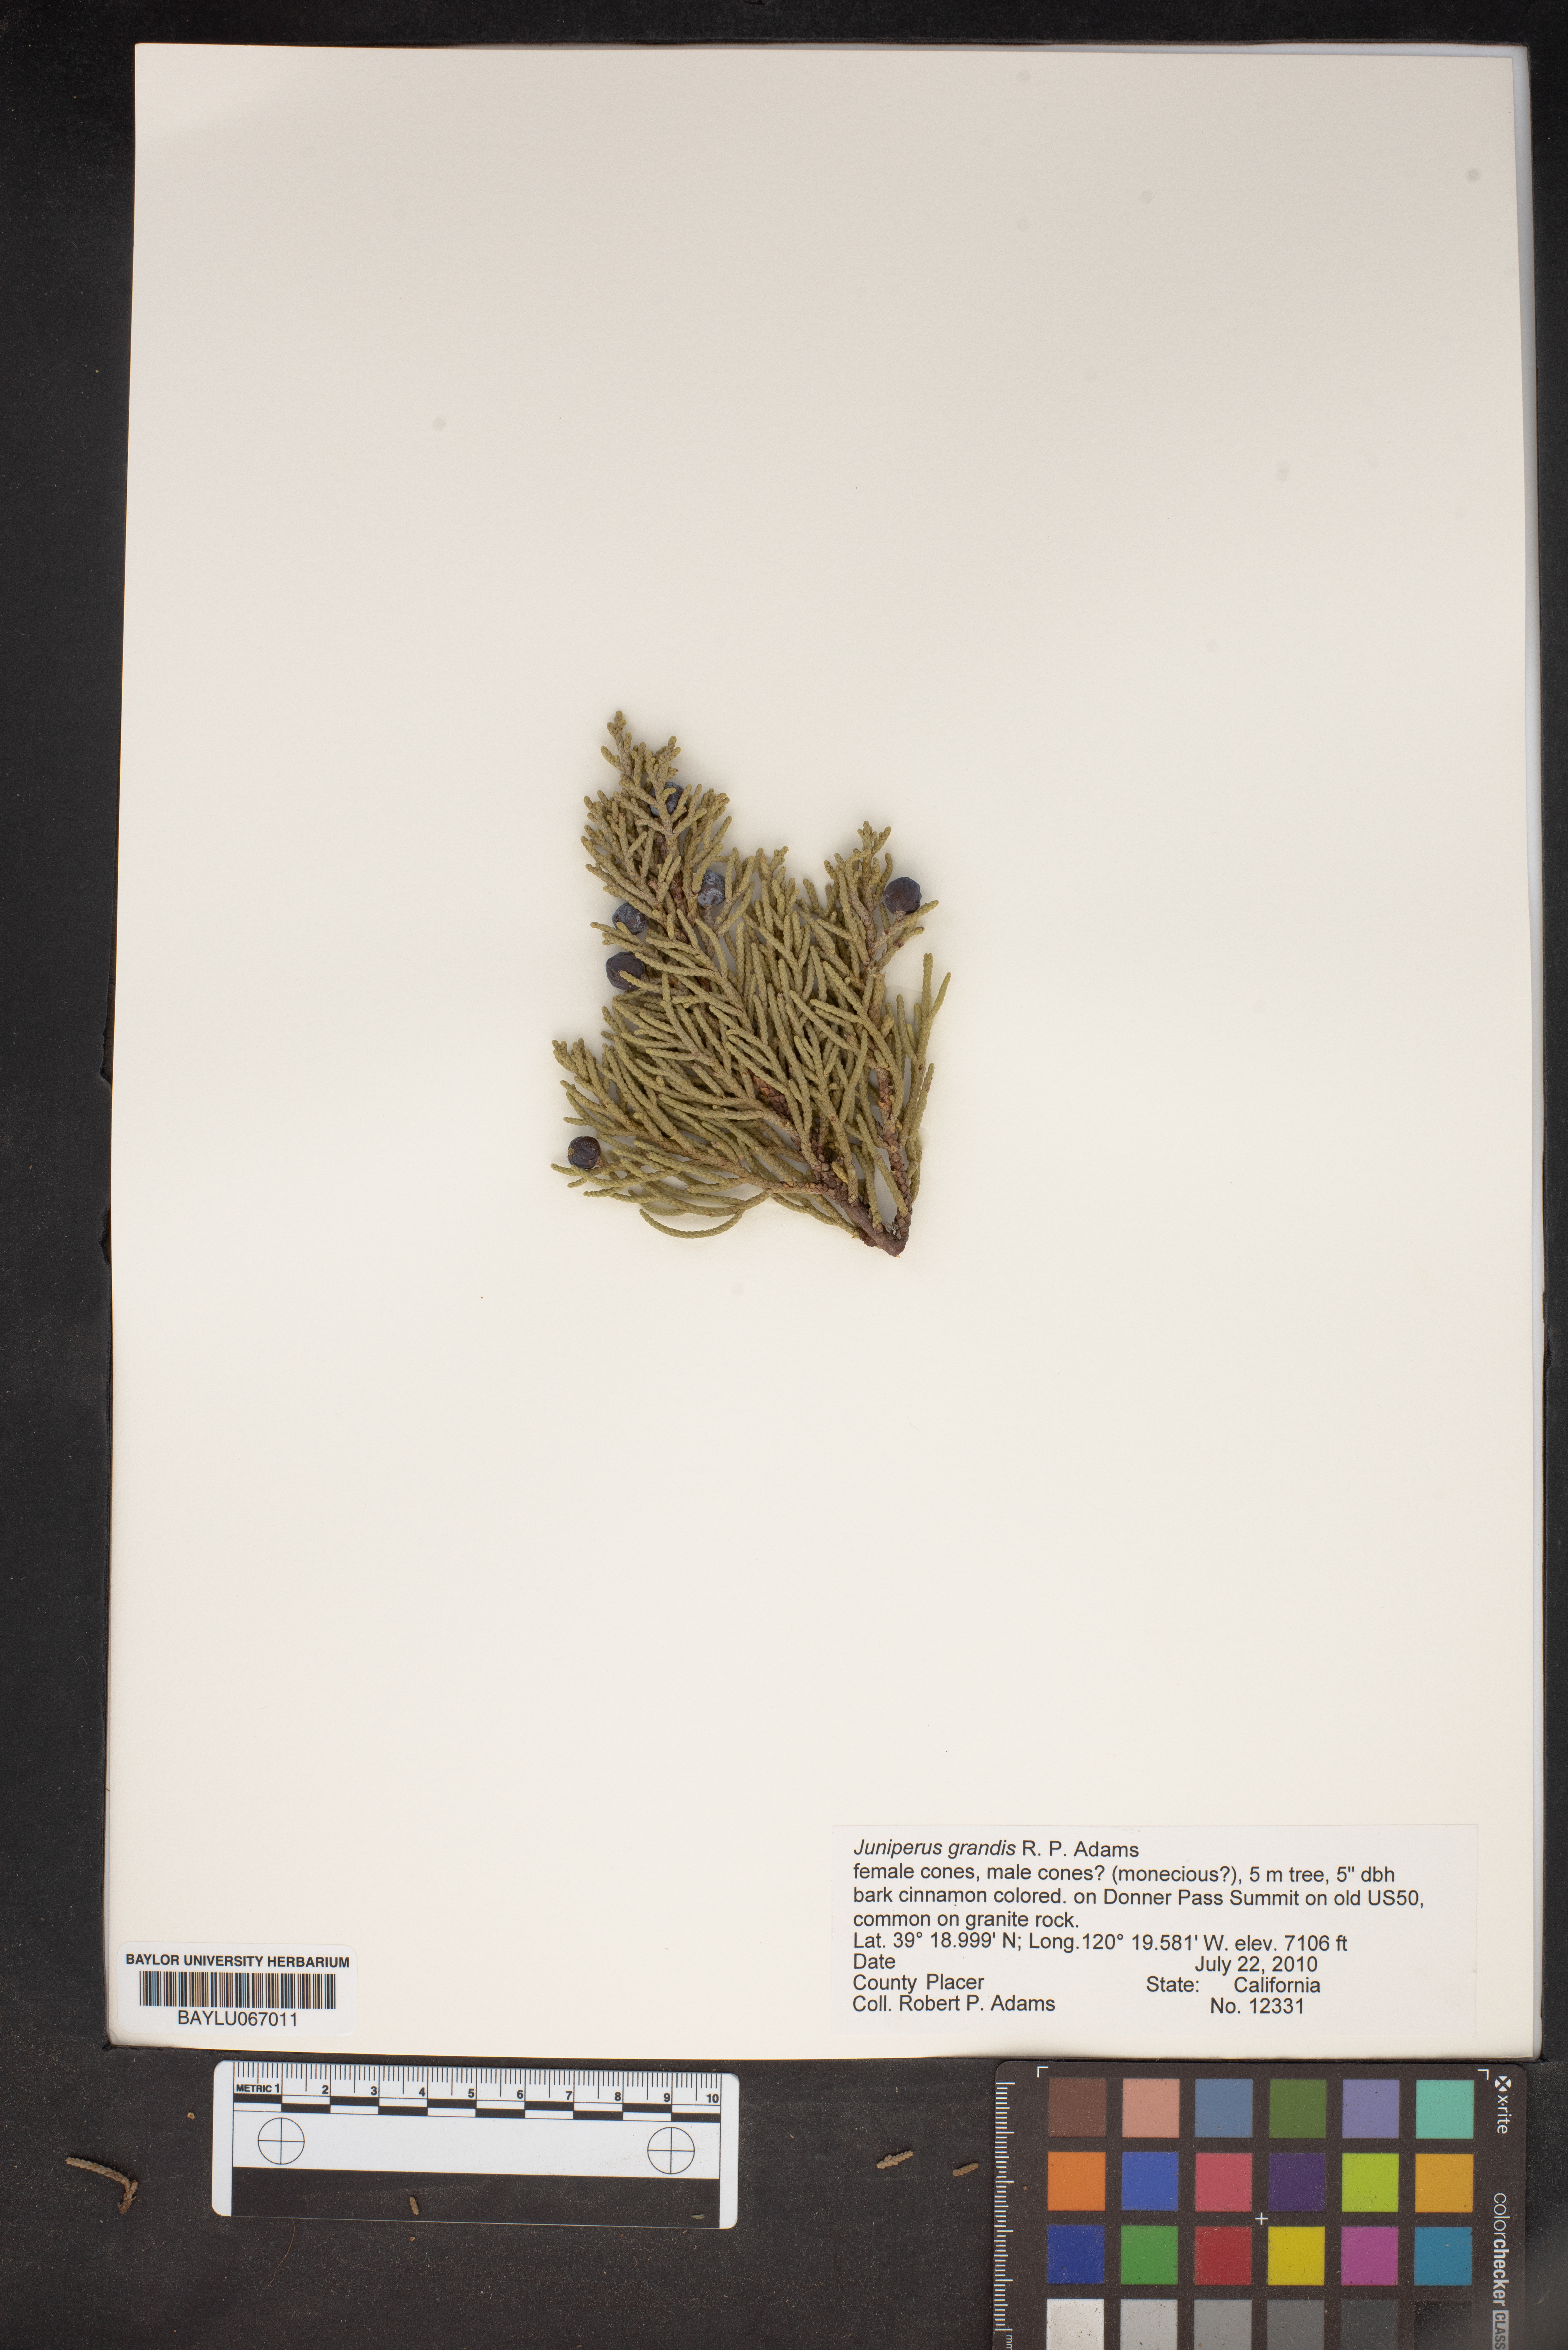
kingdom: Plantae
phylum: Tracheophyta
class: Pinopsida
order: Pinales
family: Cupressaceae
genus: Juniperus
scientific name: Juniperus occidentalis
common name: Western juniper
